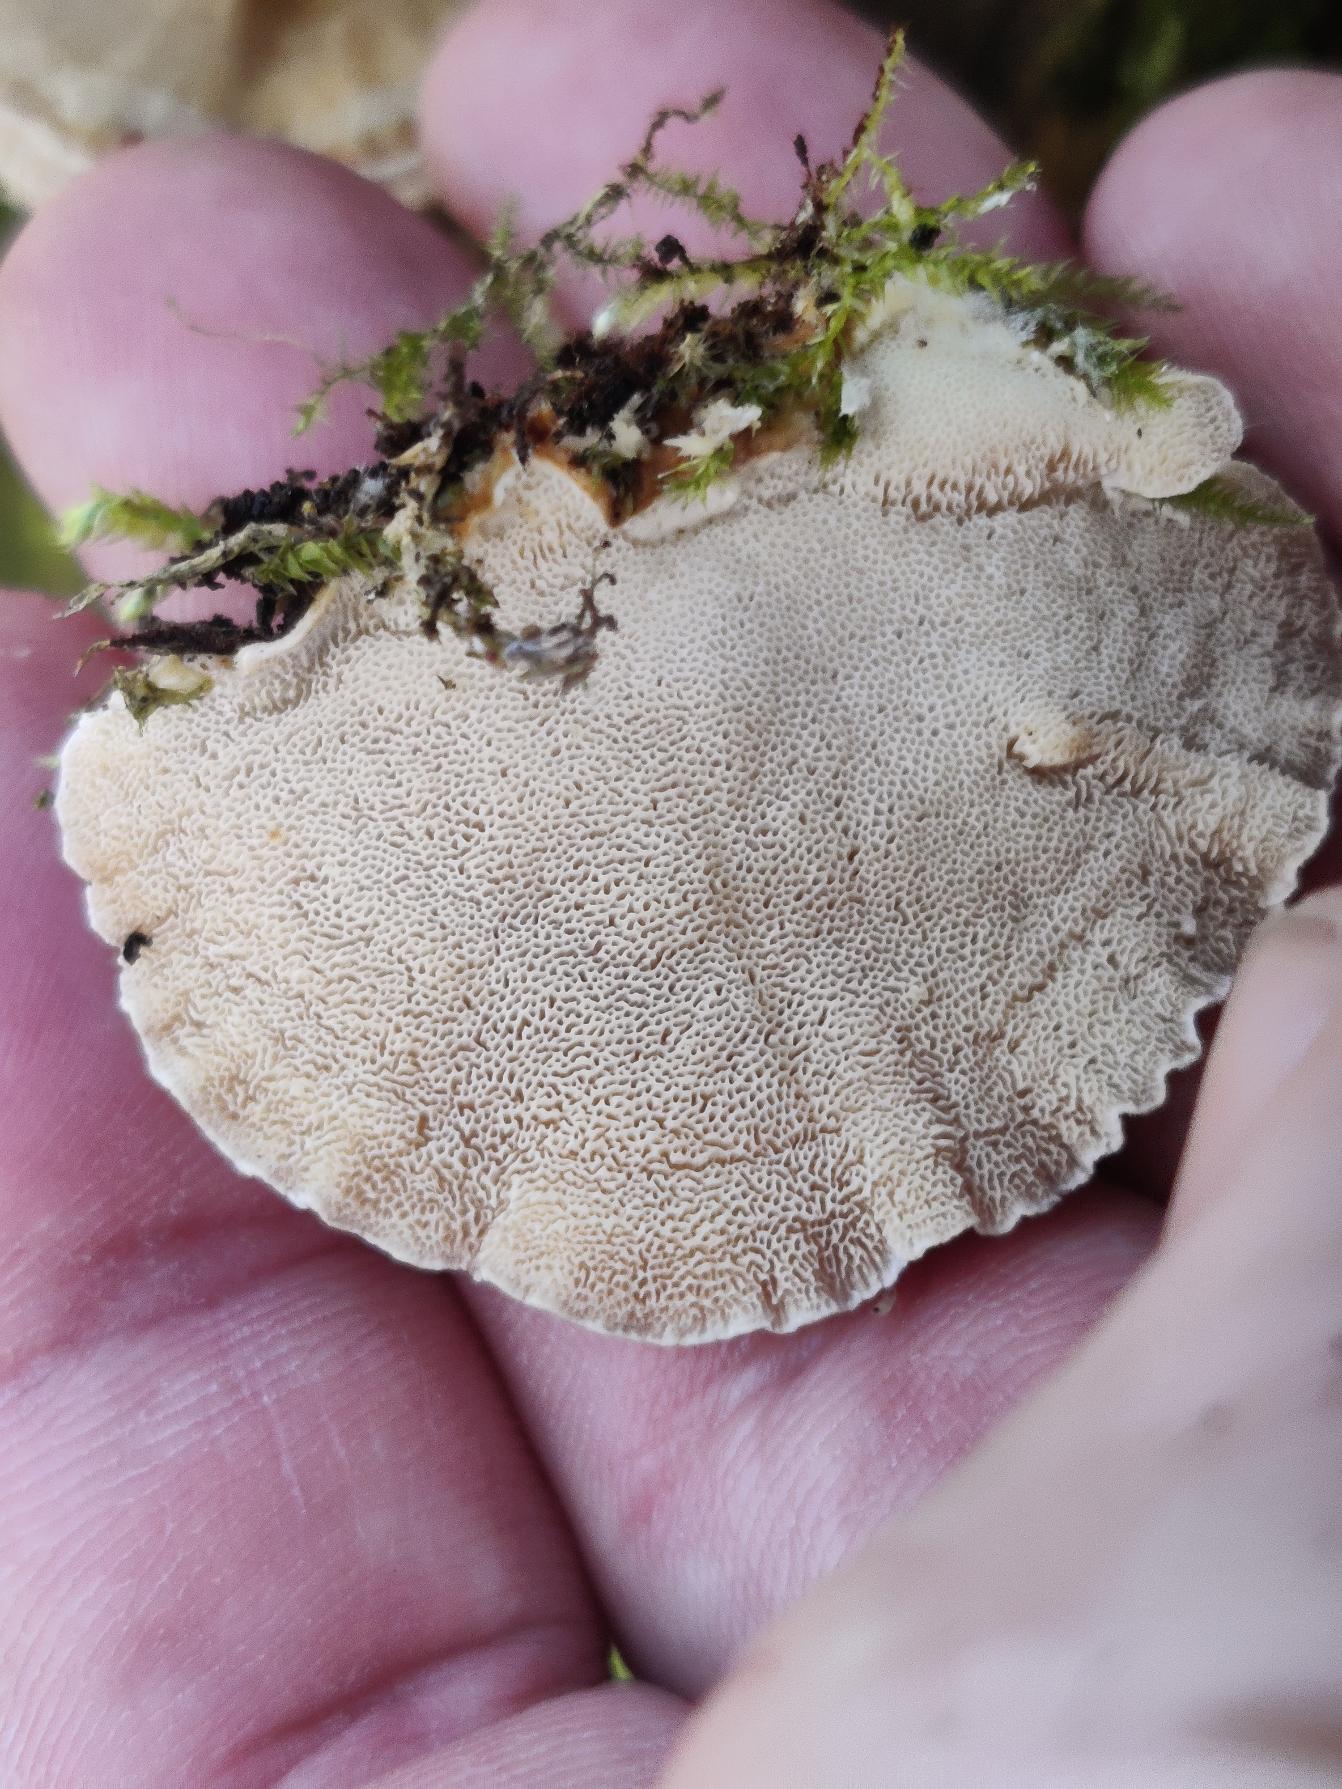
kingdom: Fungi
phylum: Basidiomycota
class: Agaricomycetes
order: Polyporales
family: Polyporaceae
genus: Trametes
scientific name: Trametes versicolor
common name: Broget læderporesvamp
